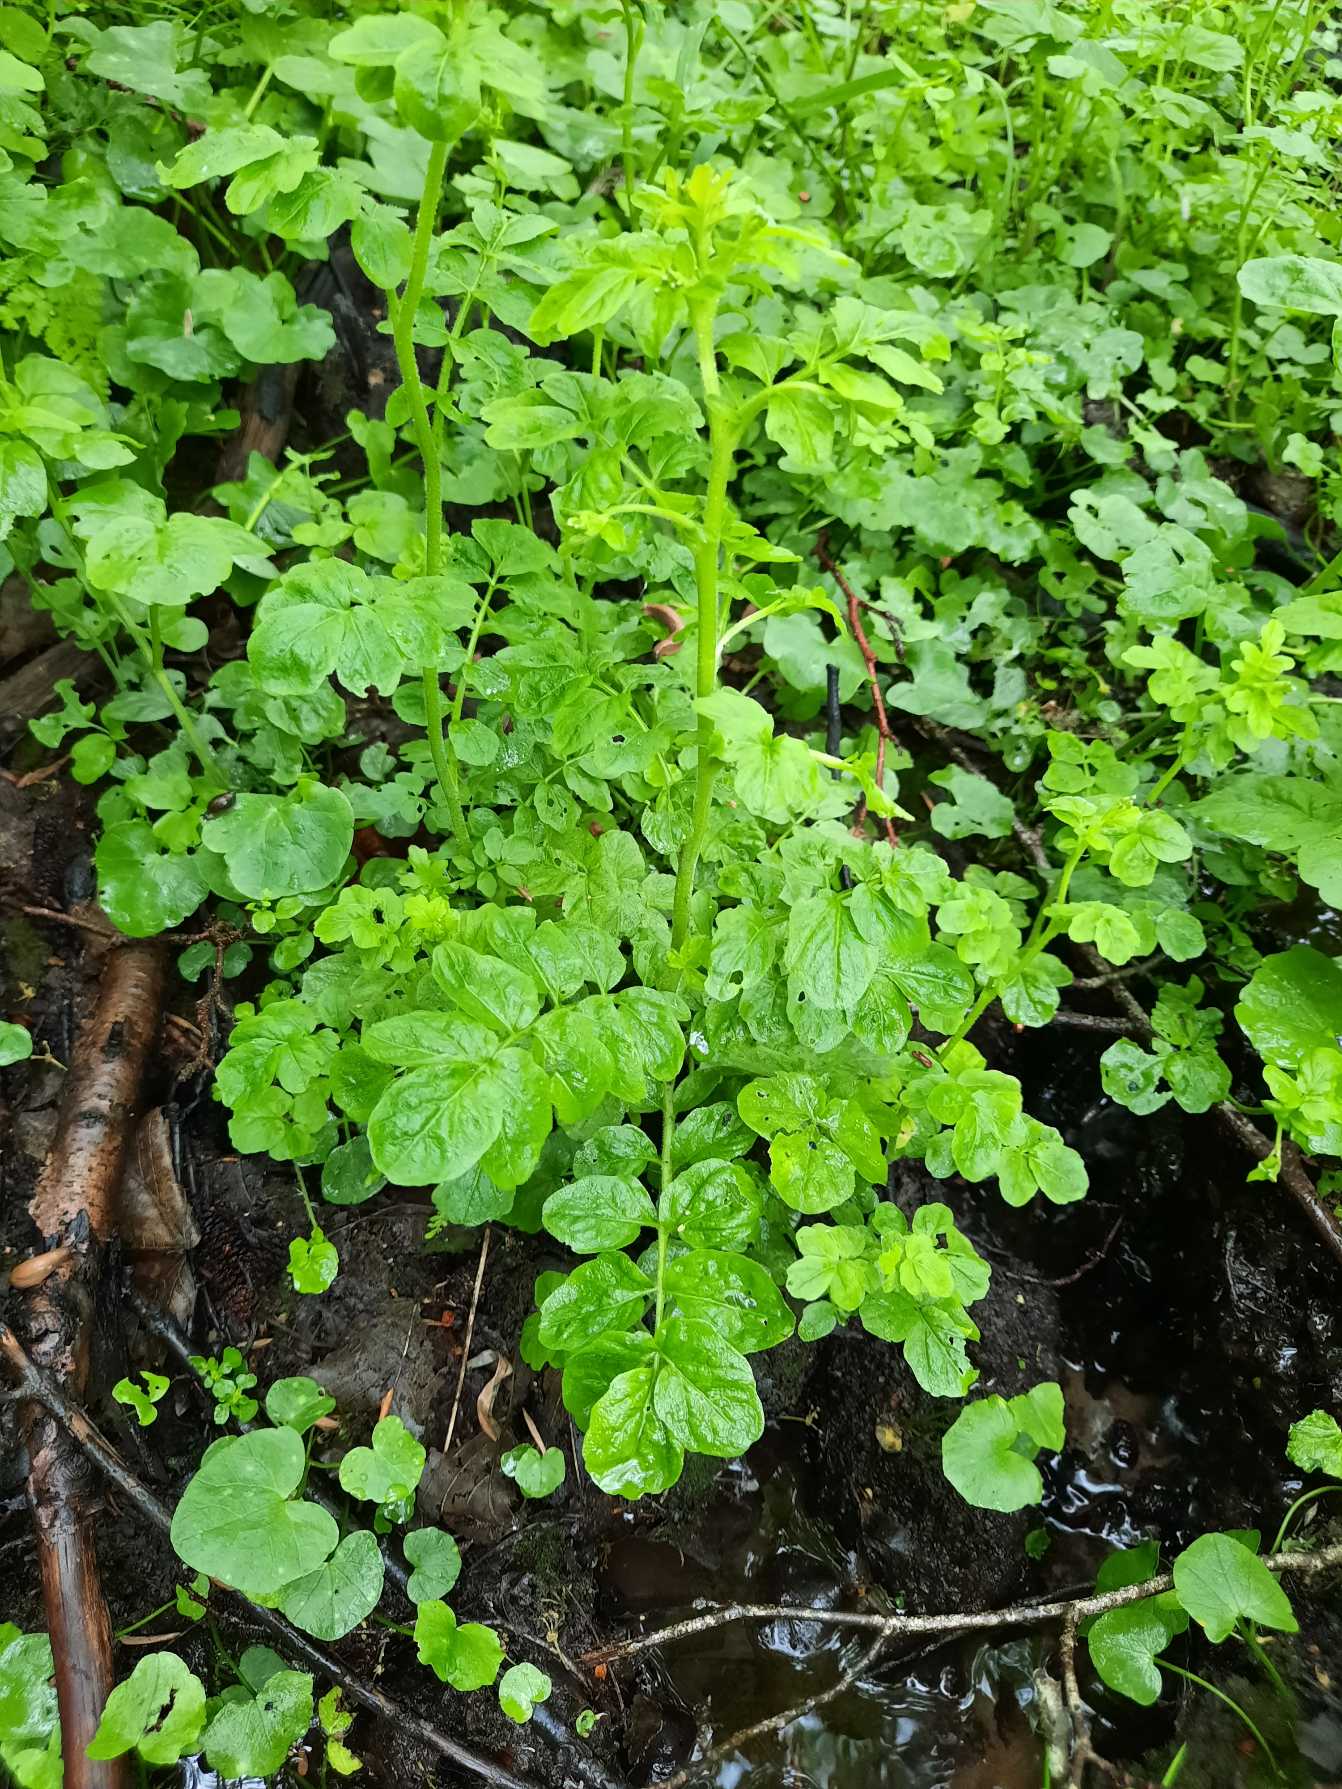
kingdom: Plantae
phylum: Tracheophyta
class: Magnoliopsida
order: Brassicales
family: Brassicaceae
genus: Cardamine
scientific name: Cardamine amara
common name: Vandkarse
